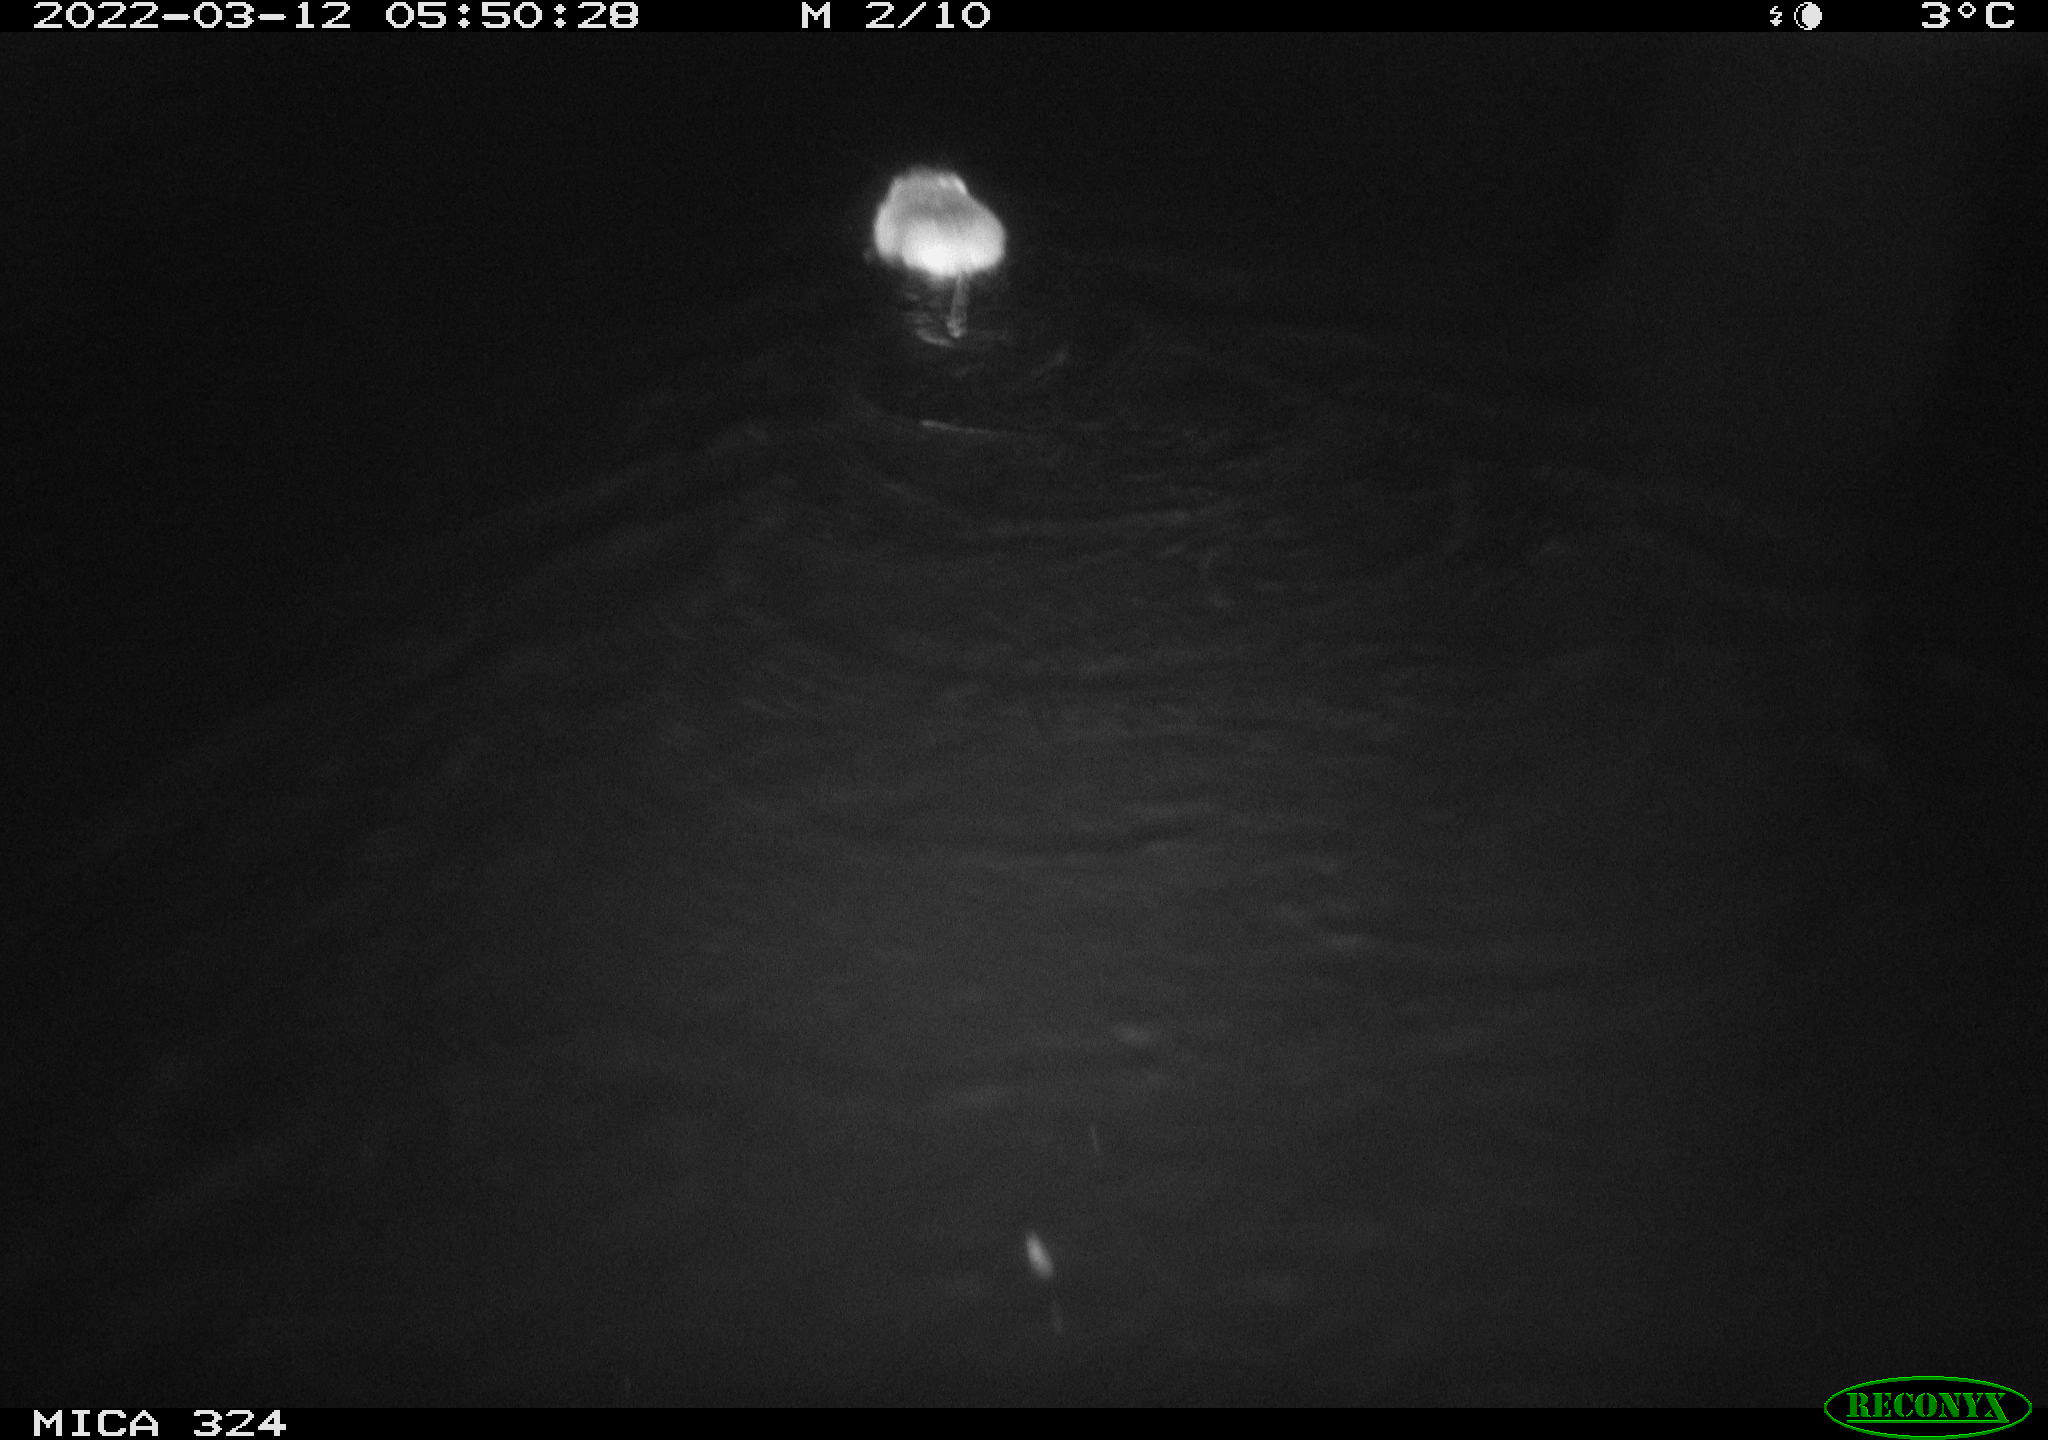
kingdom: Animalia
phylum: Chordata
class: Mammalia
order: Rodentia
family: Cricetidae
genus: Ondatra
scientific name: Ondatra zibethicus
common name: Muskrat
